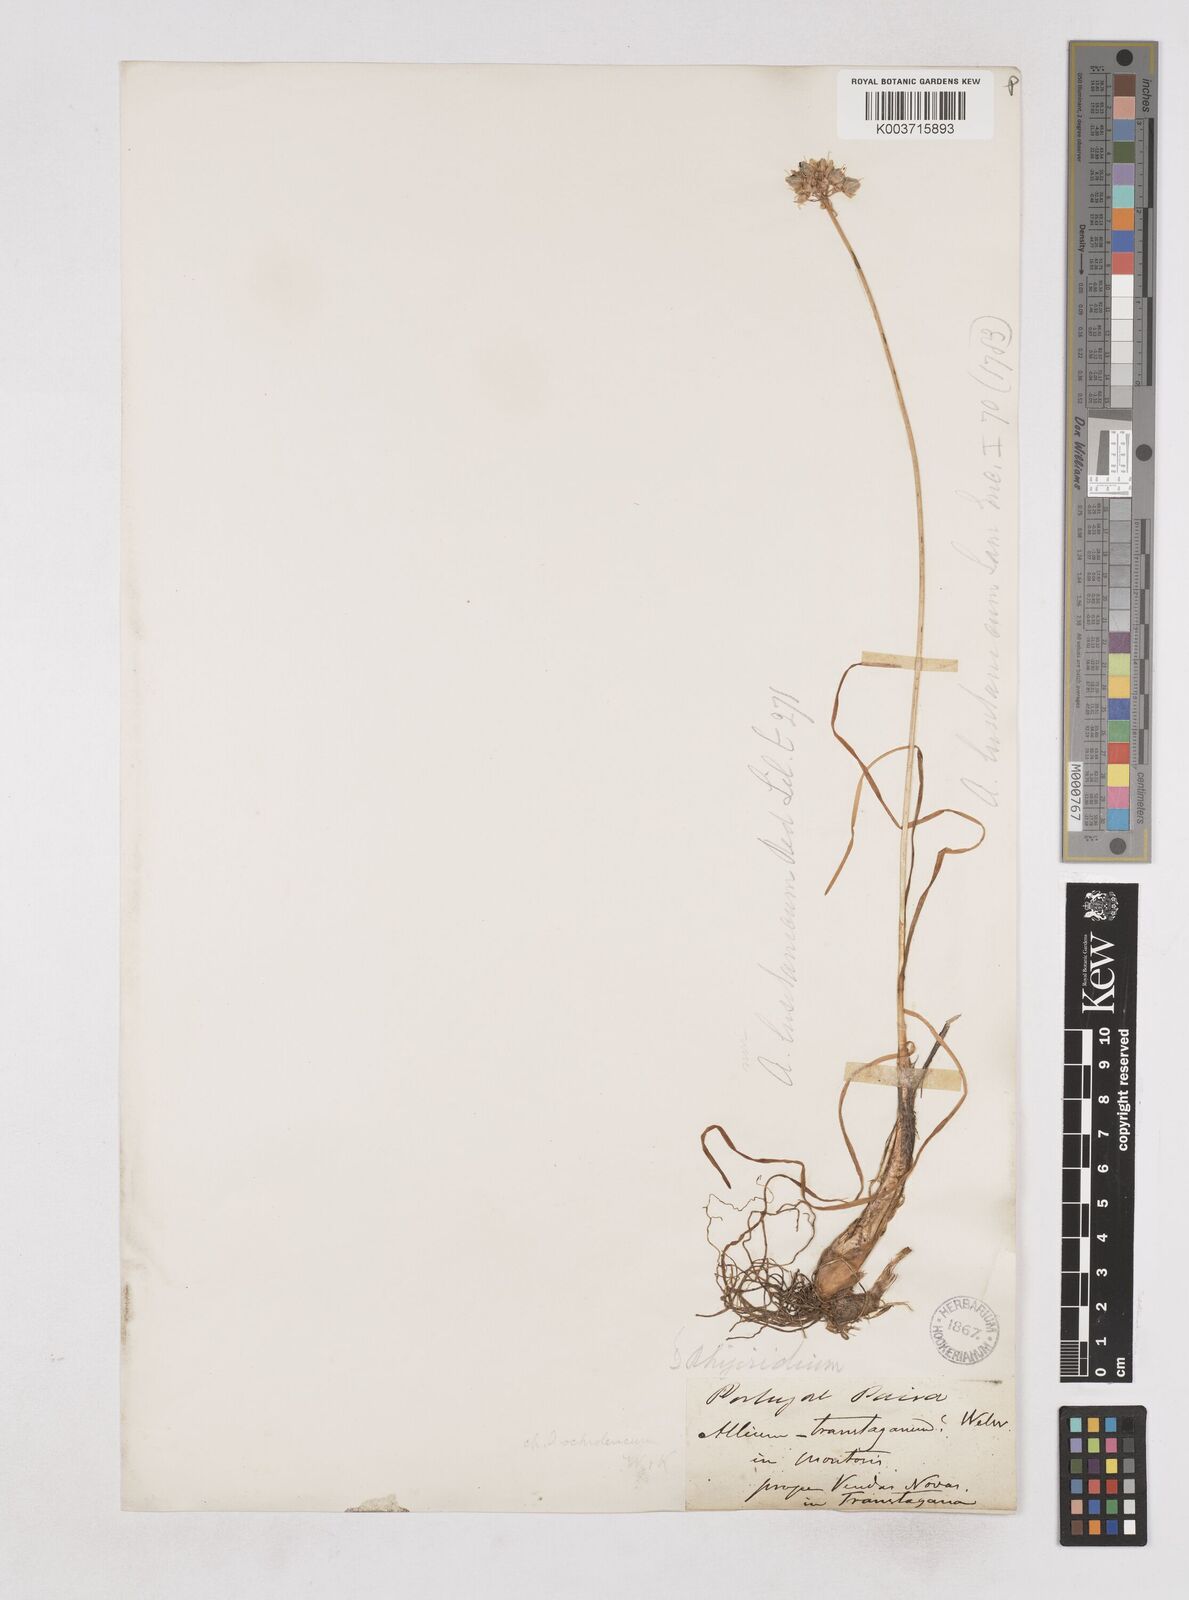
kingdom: Plantae
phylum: Tracheophyta
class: Liliopsida
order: Asparagales
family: Amaryllidaceae
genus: Allium
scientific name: Allium ericetorum
